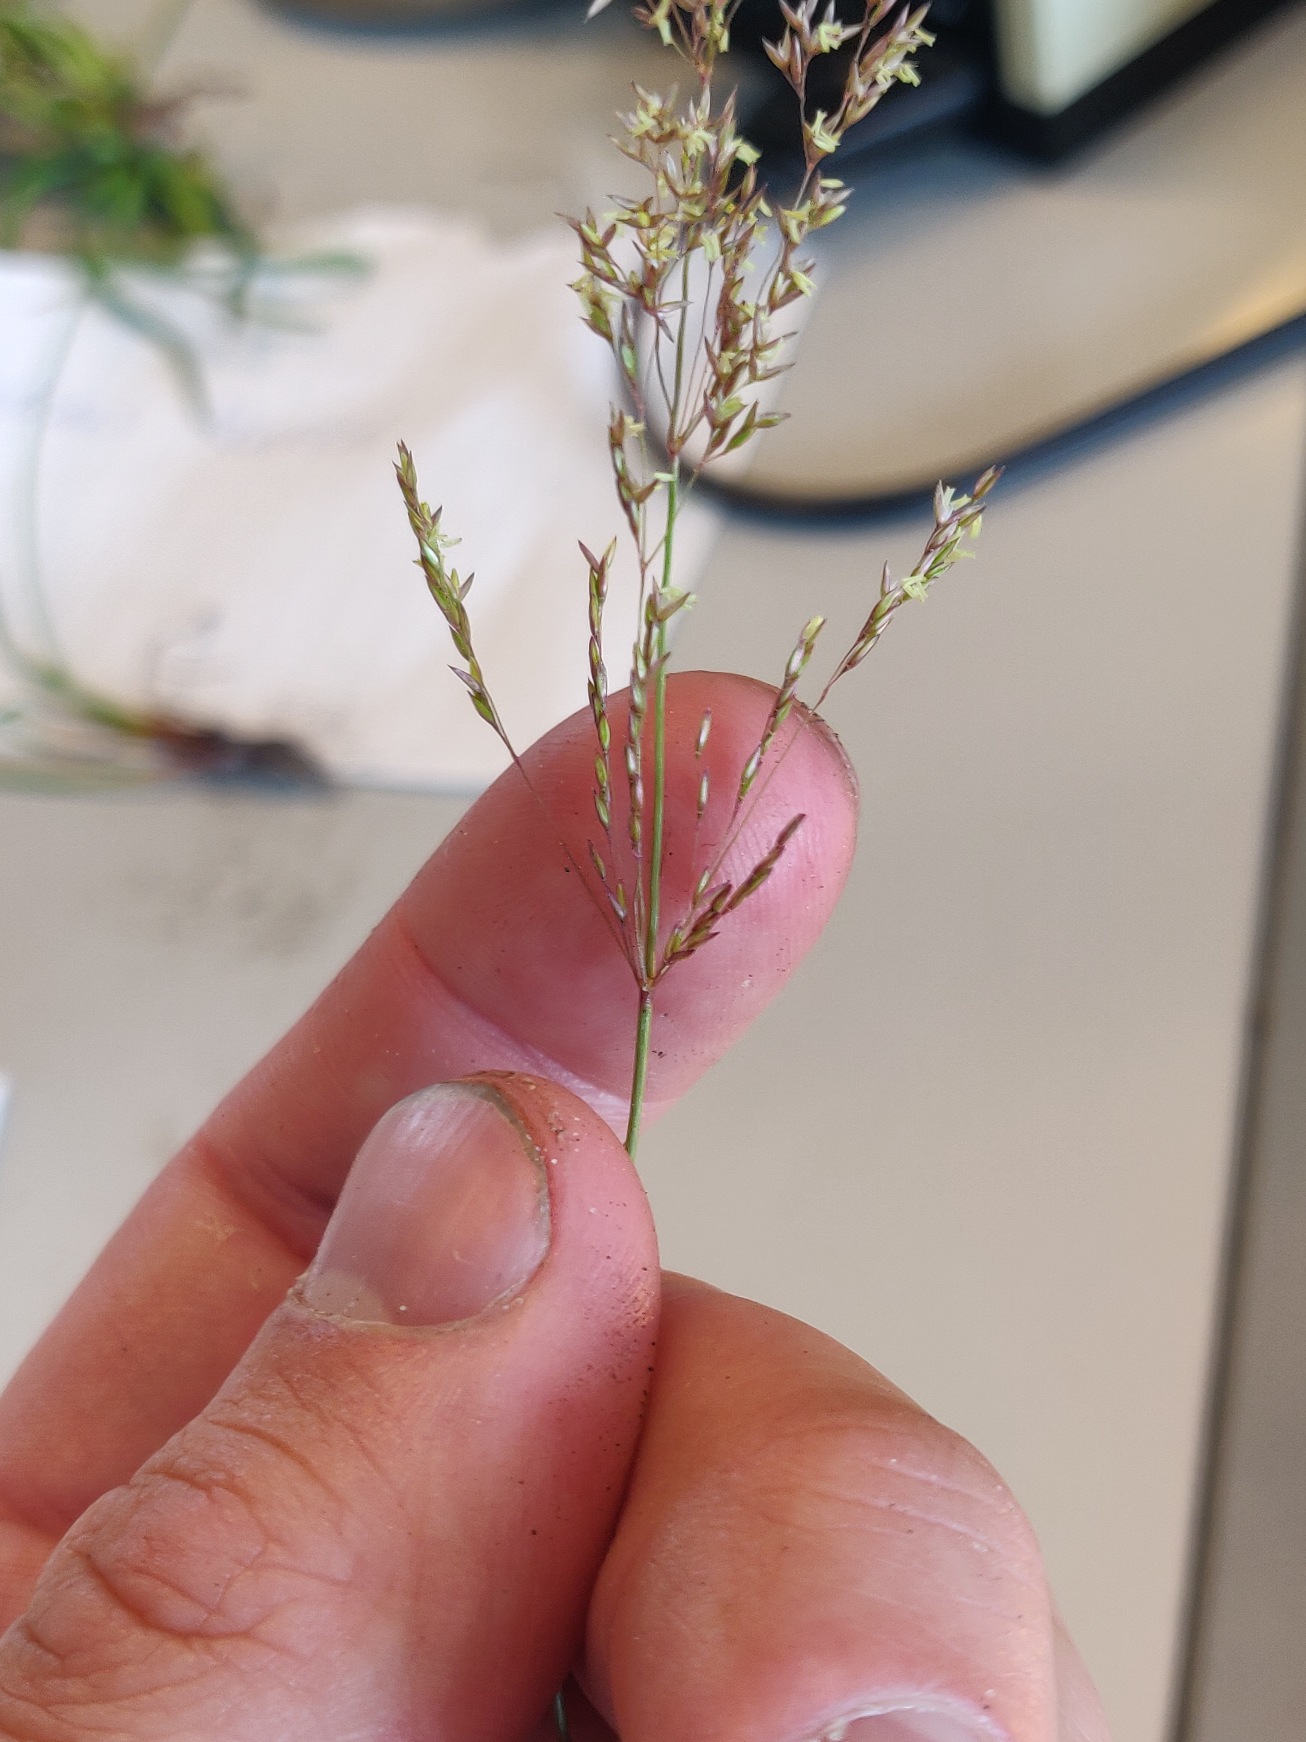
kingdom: Plantae
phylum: Tracheophyta
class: Liliopsida
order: Poales
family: Poaceae
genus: Agrostis
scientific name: Agrostis gigantea
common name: Stortoppet hvene
